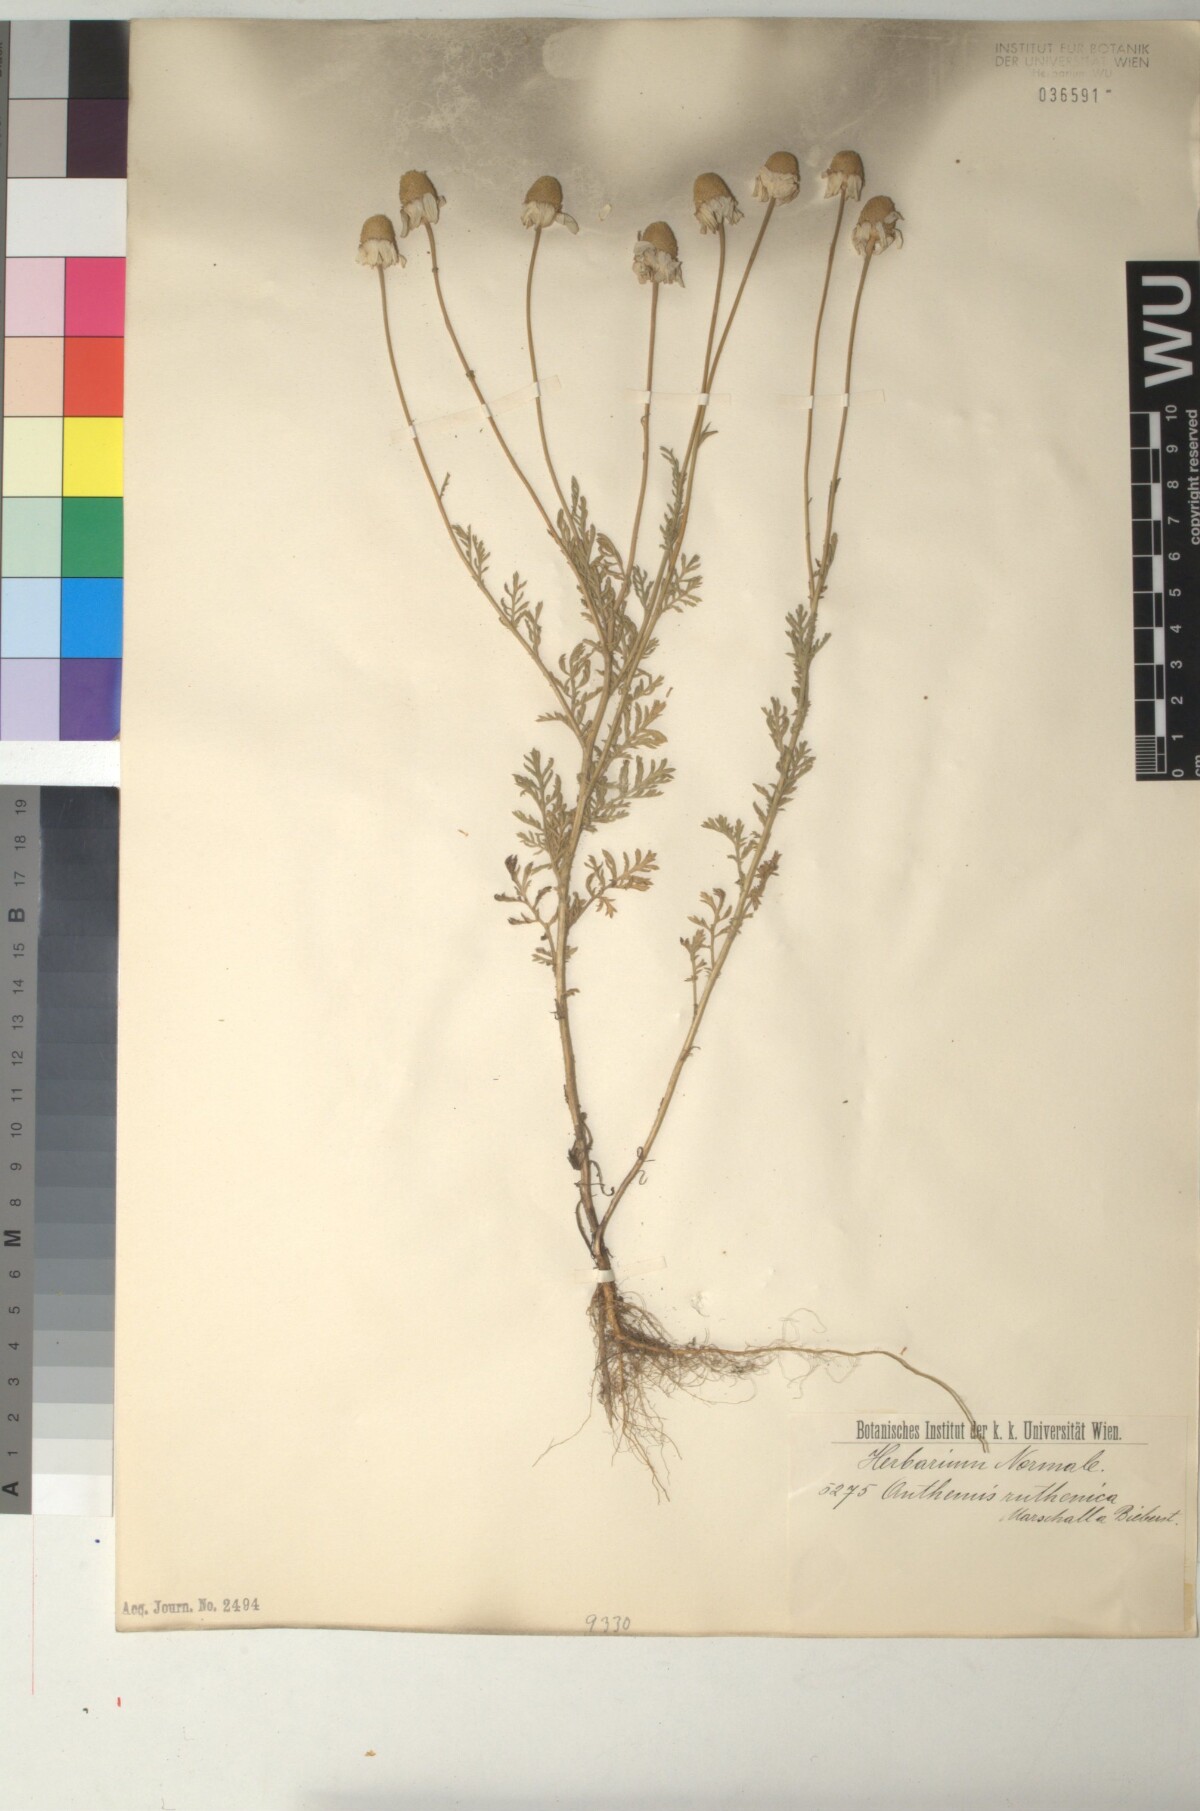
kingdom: Plantae
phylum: Tracheophyta
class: Magnoliopsida
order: Asterales
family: Asteraceae
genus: Anthemis
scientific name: Anthemis ruthenica
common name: Eastern chamomile
